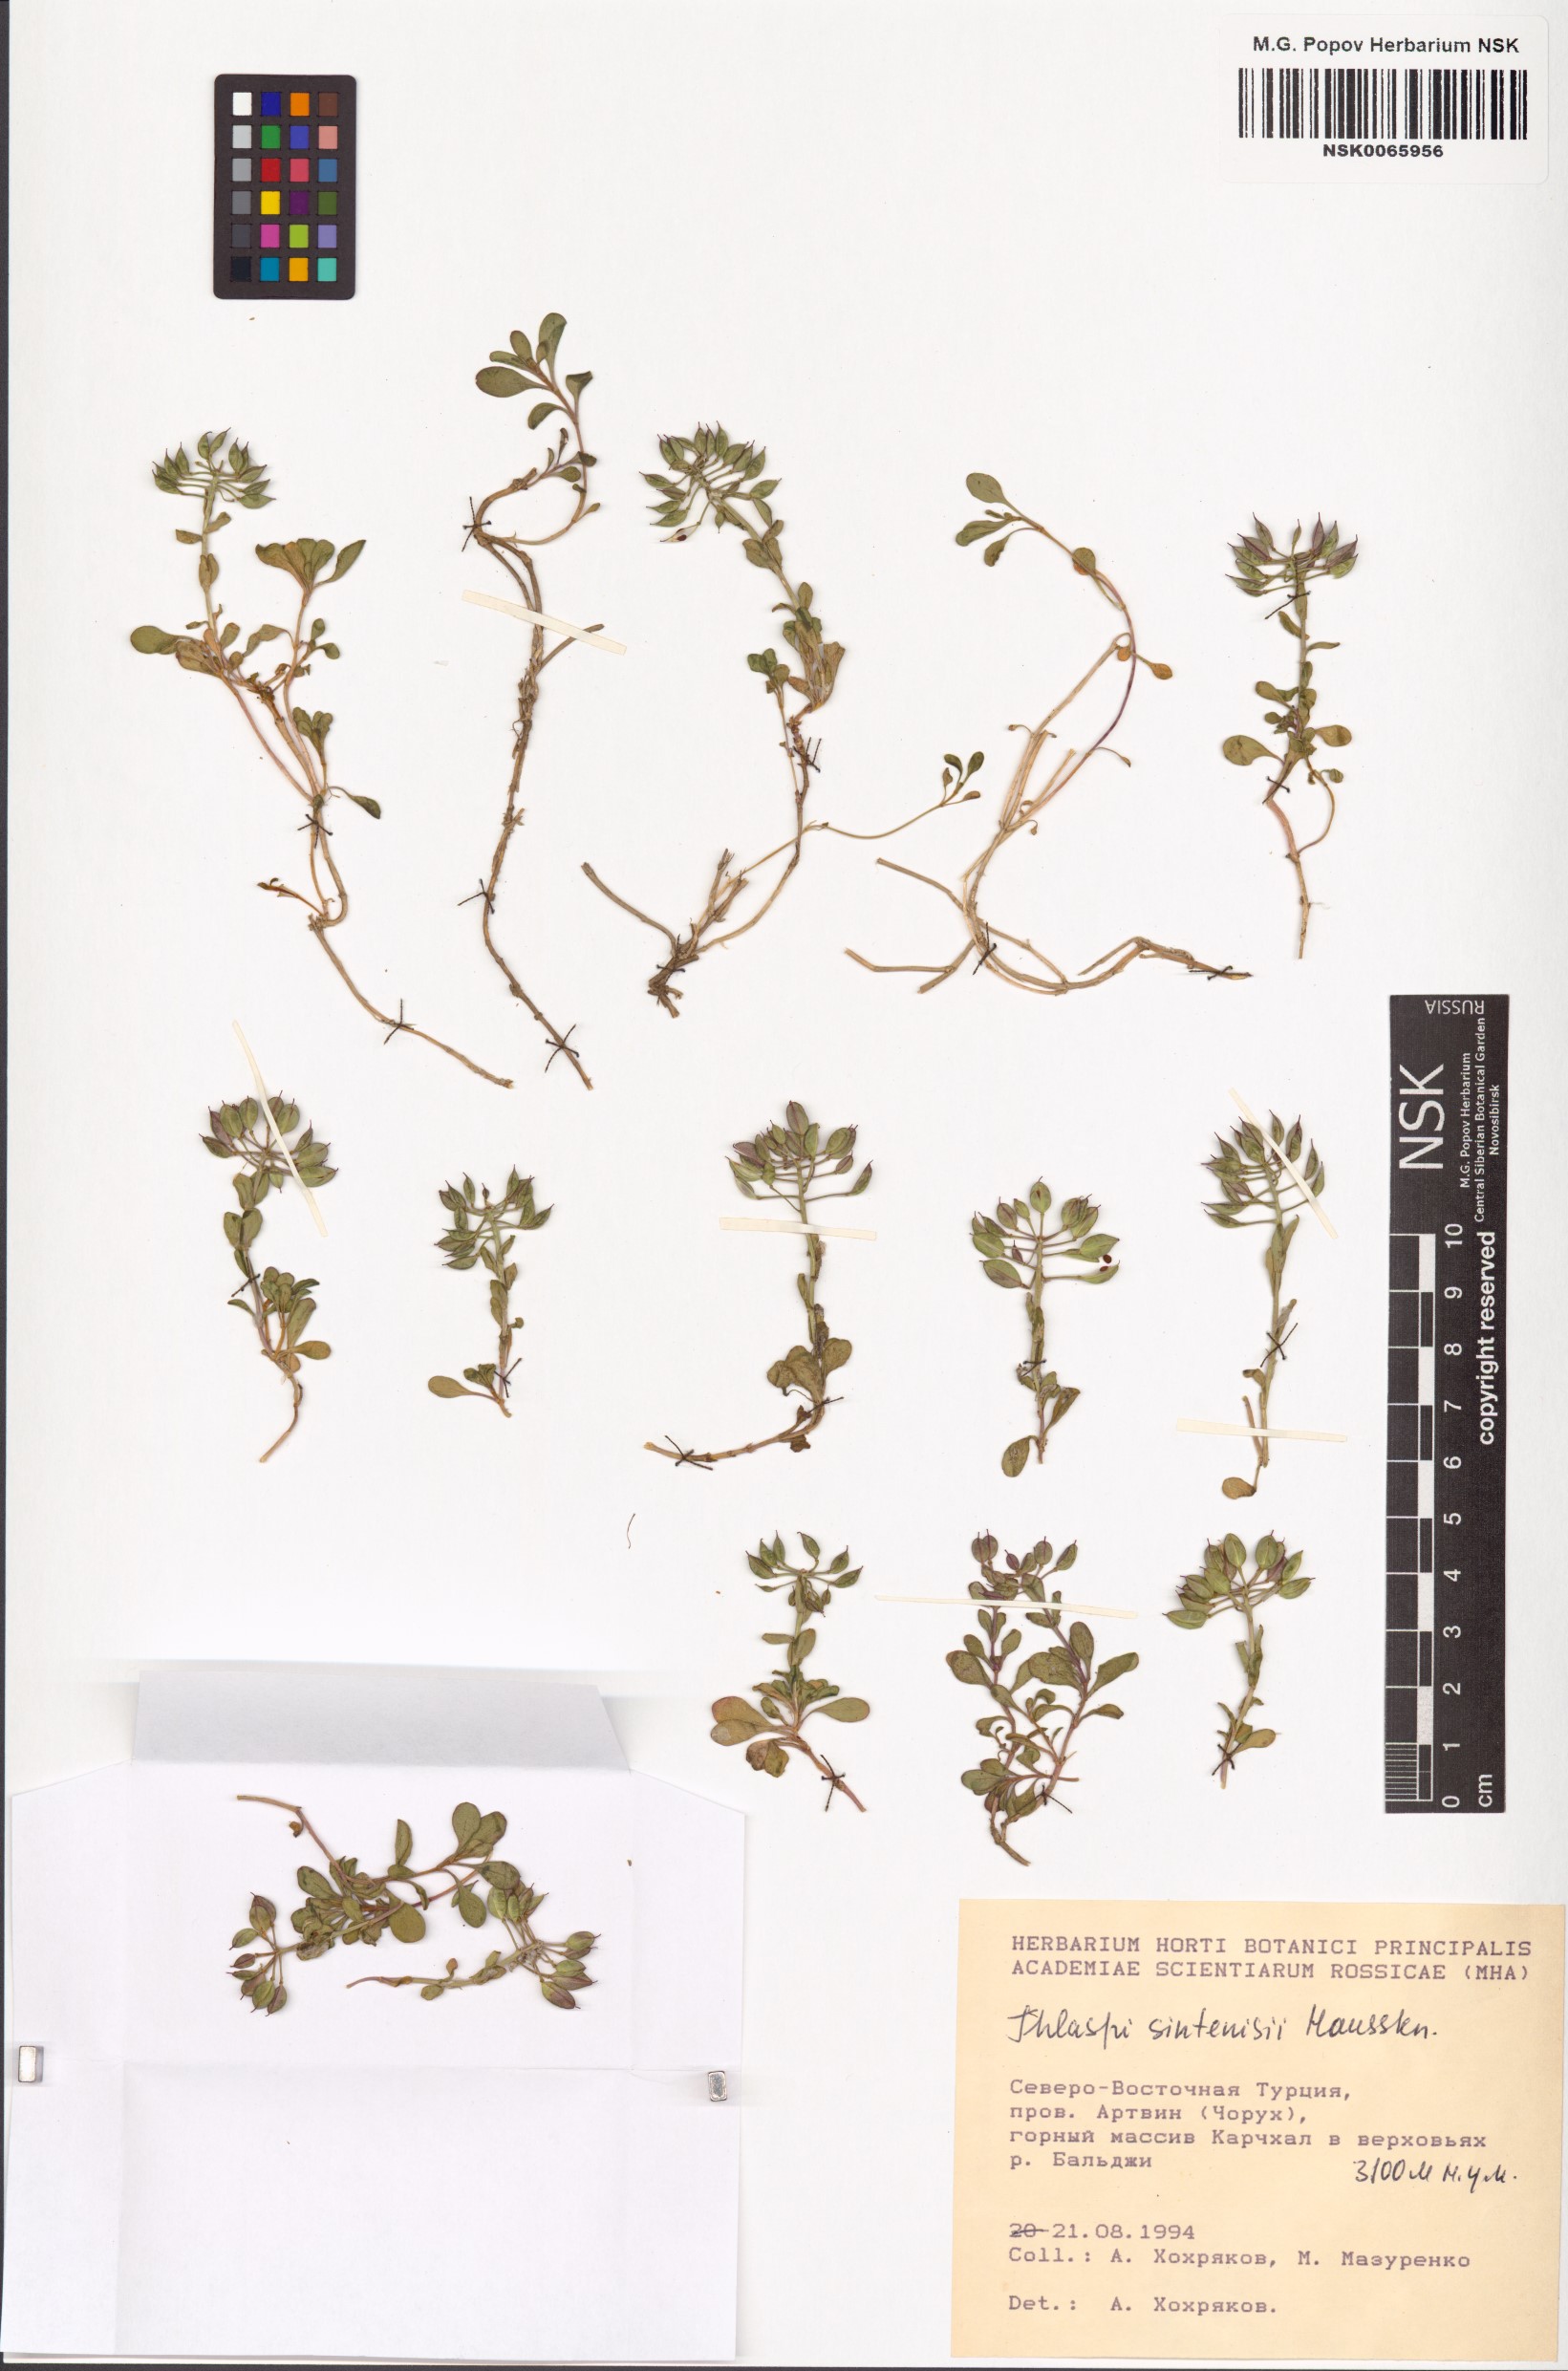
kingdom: Plantae
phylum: Tracheophyta
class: Magnoliopsida
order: Brassicales
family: Brassicaceae
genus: Noccaea
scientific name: Noccaea sintenisii
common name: Sintensis' penny-cress
